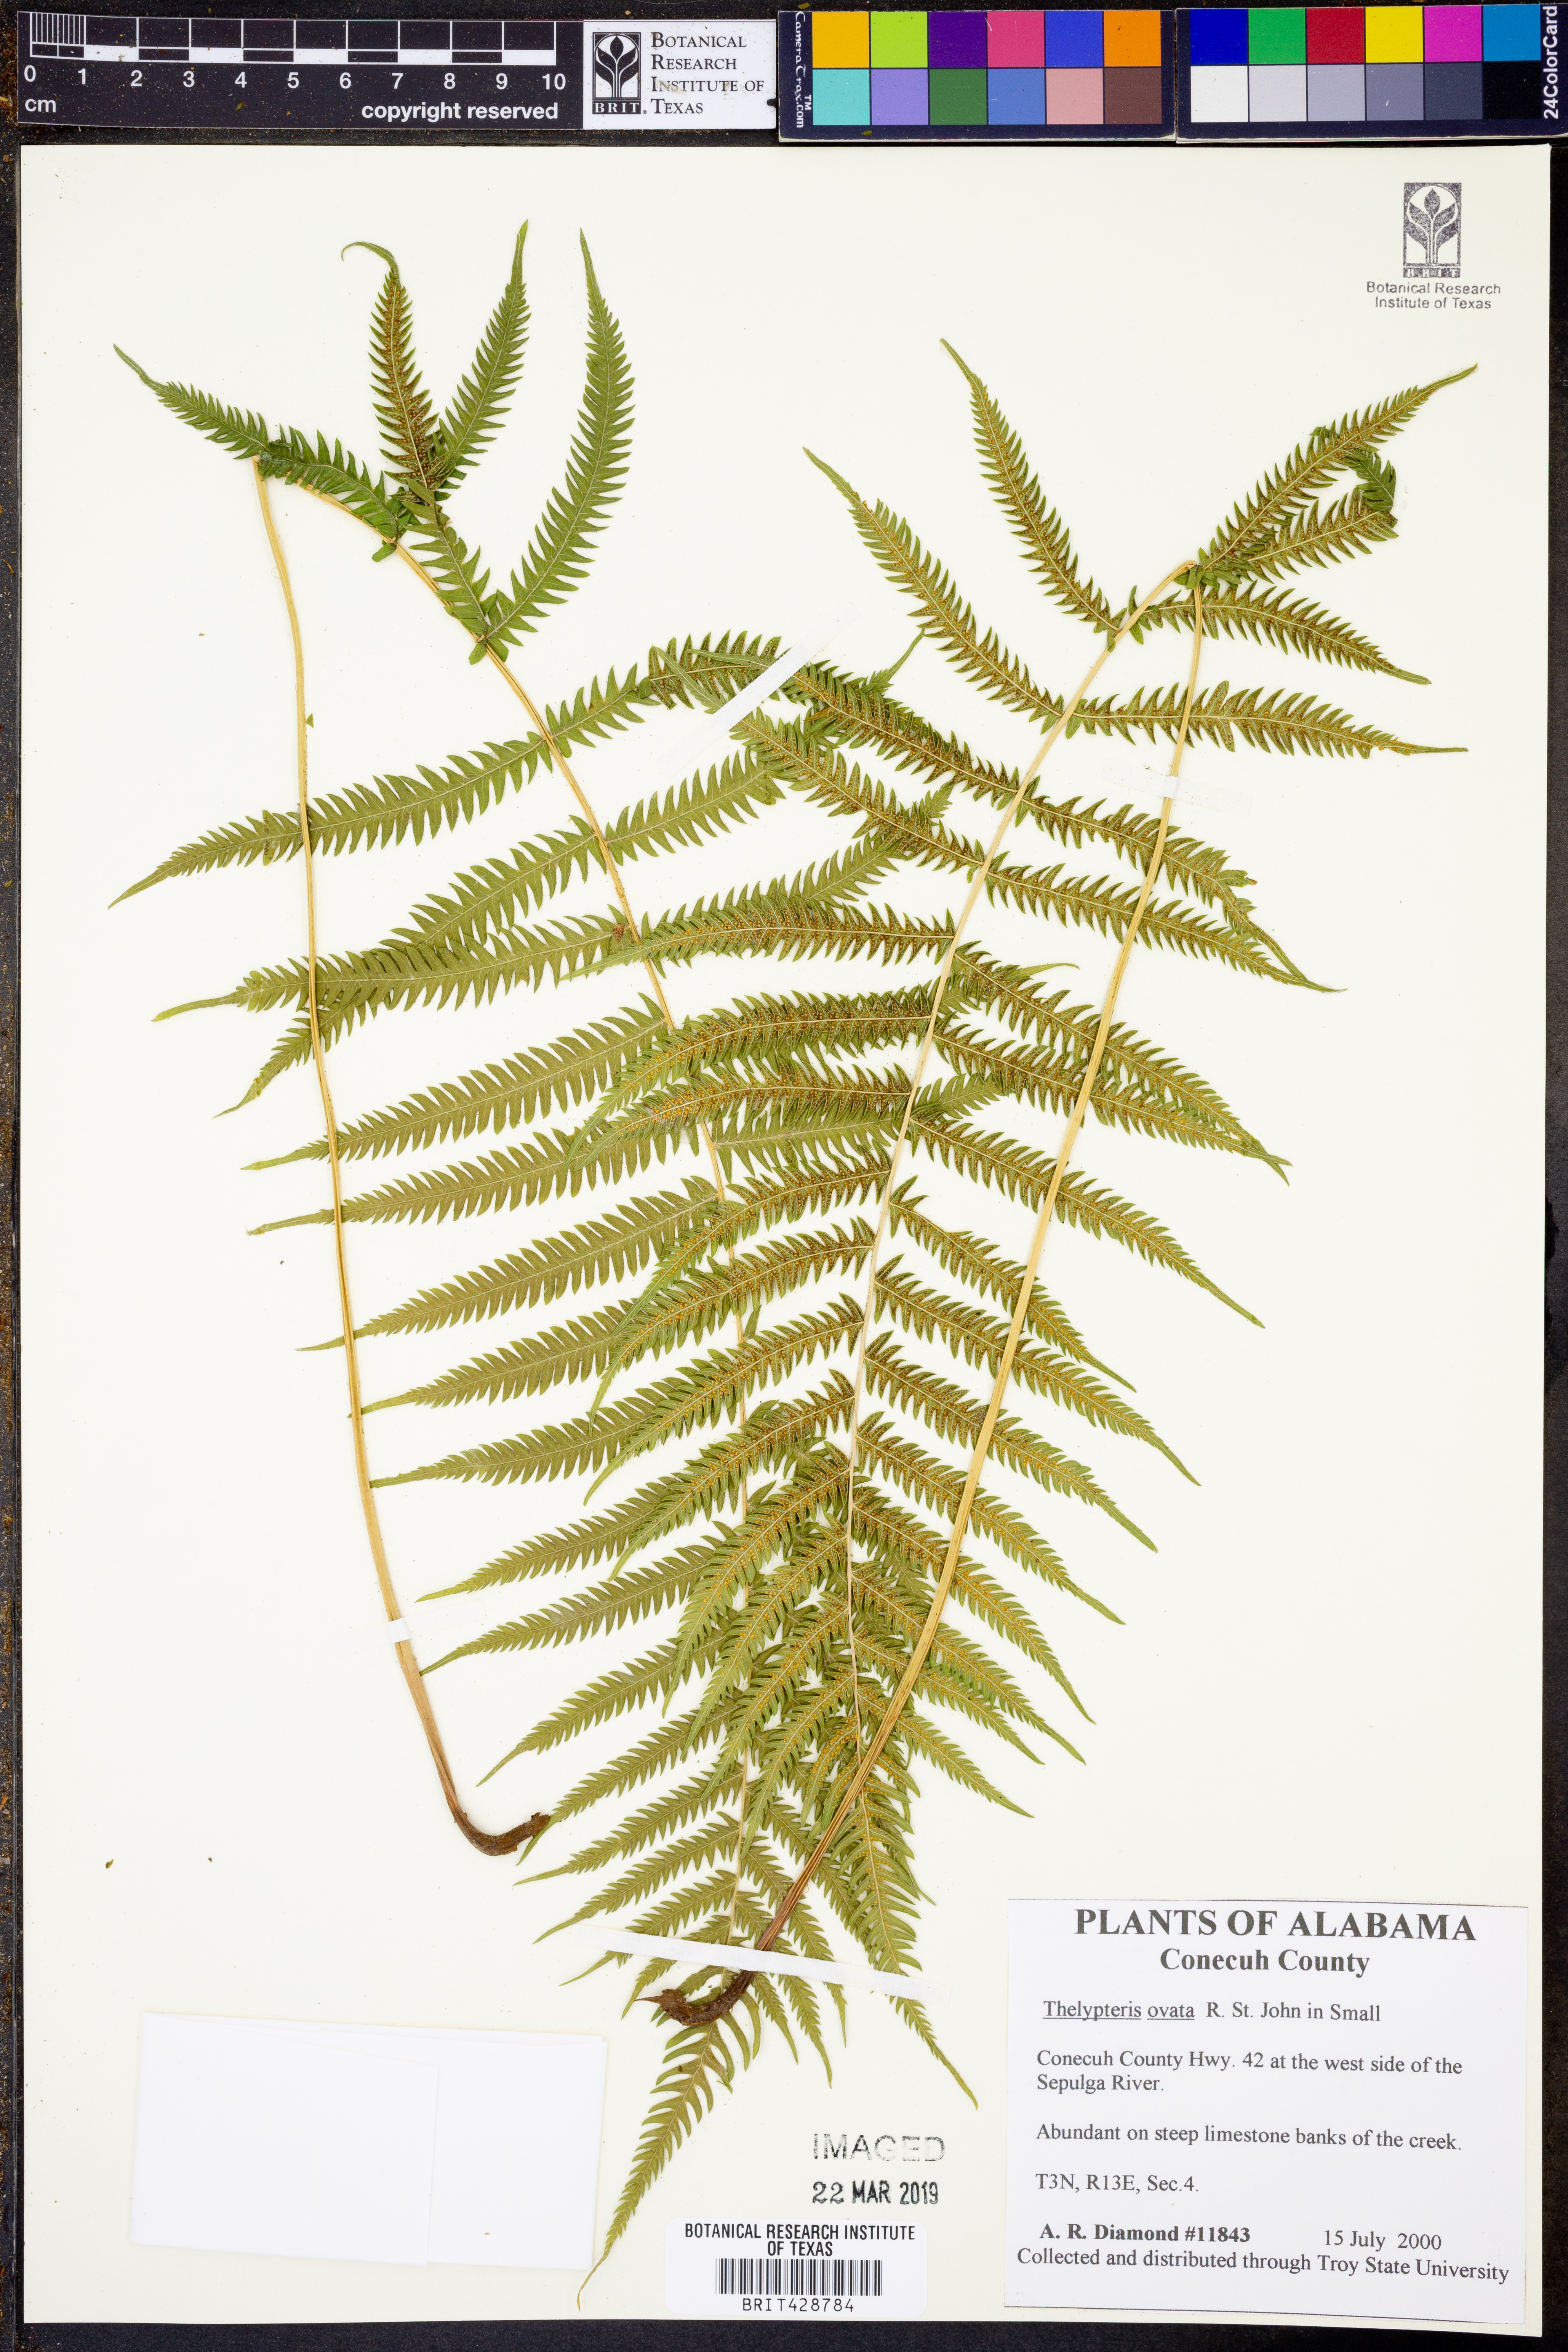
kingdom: Plantae
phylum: Tracheophyta
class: Polypodiopsida
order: Polypodiales
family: Thelypteridaceae
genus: Pelazoneuron
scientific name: Pelazoneuron kunthii
